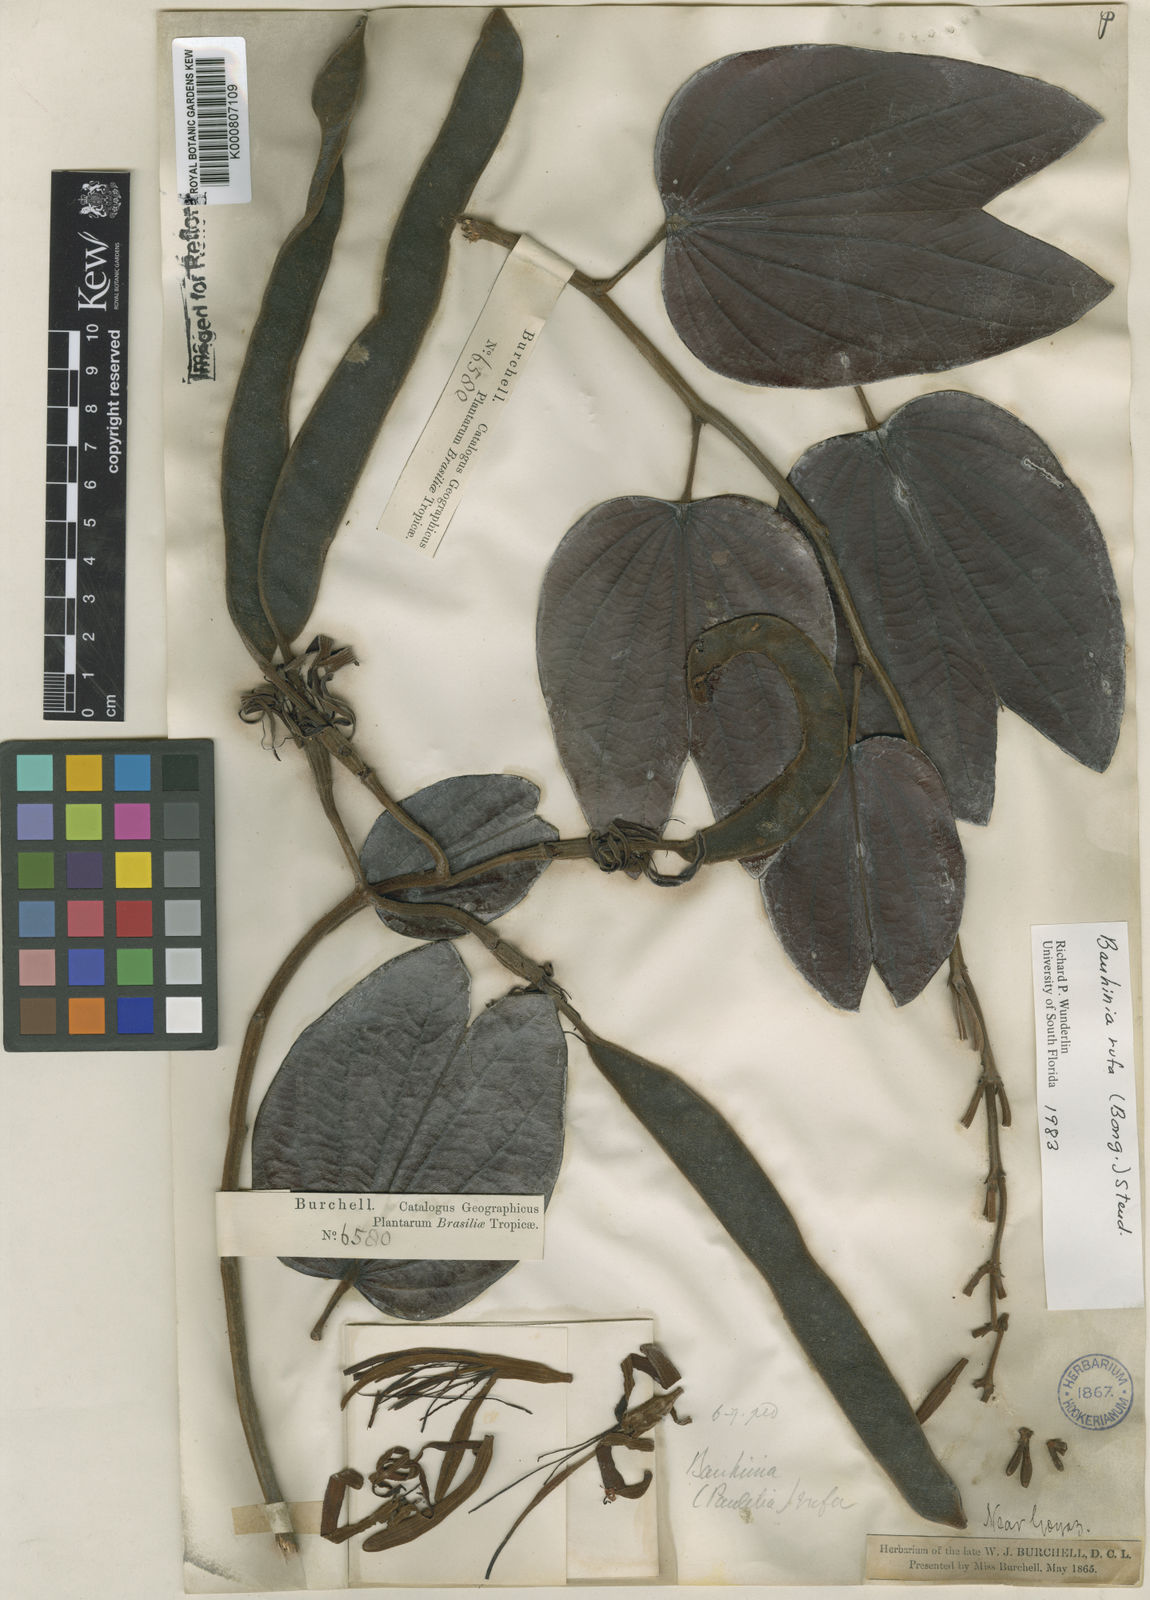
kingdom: Plantae
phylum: Tracheophyta
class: Magnoliopsida
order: Fabales
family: Fabaceae
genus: Bauhinia
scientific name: Bauhinia rufa
